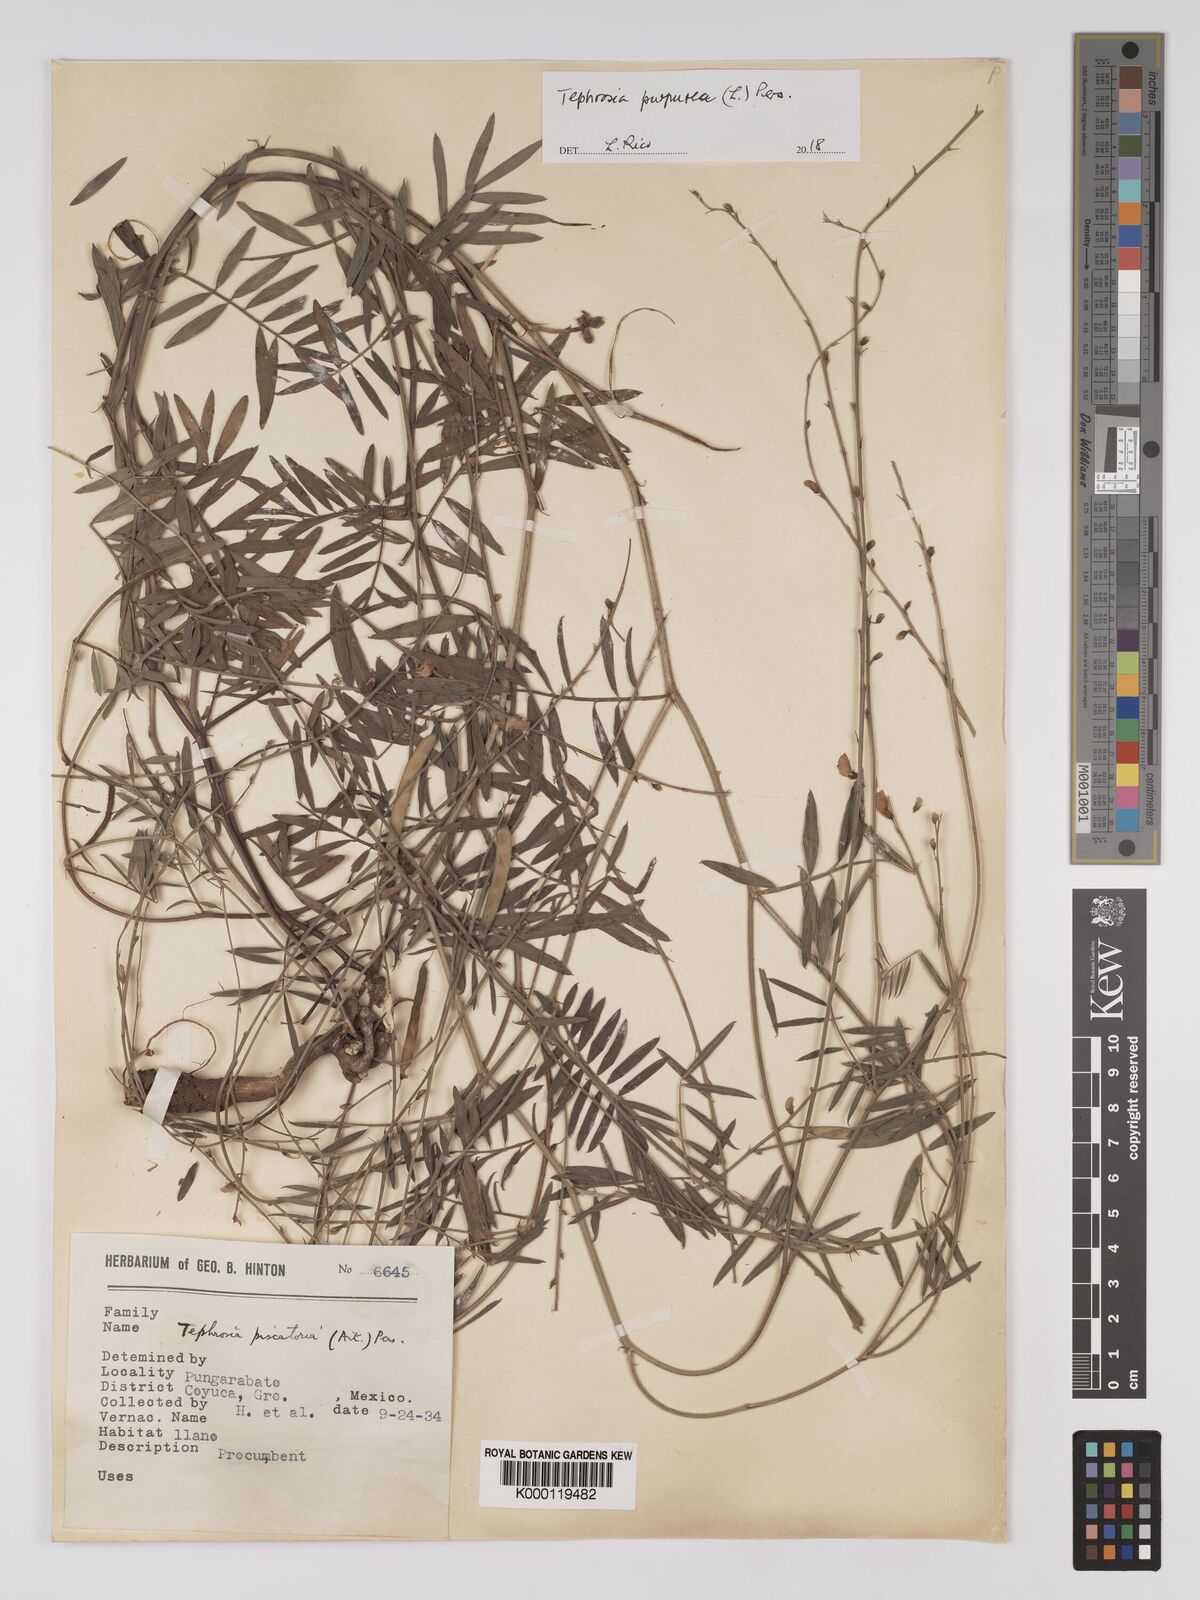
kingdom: Plantae
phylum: Tracheophyta
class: Magnoliopsida
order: Fabales
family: Fabaceae
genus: Tephrosia
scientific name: Tephrosia purpurea
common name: Fishpoison
